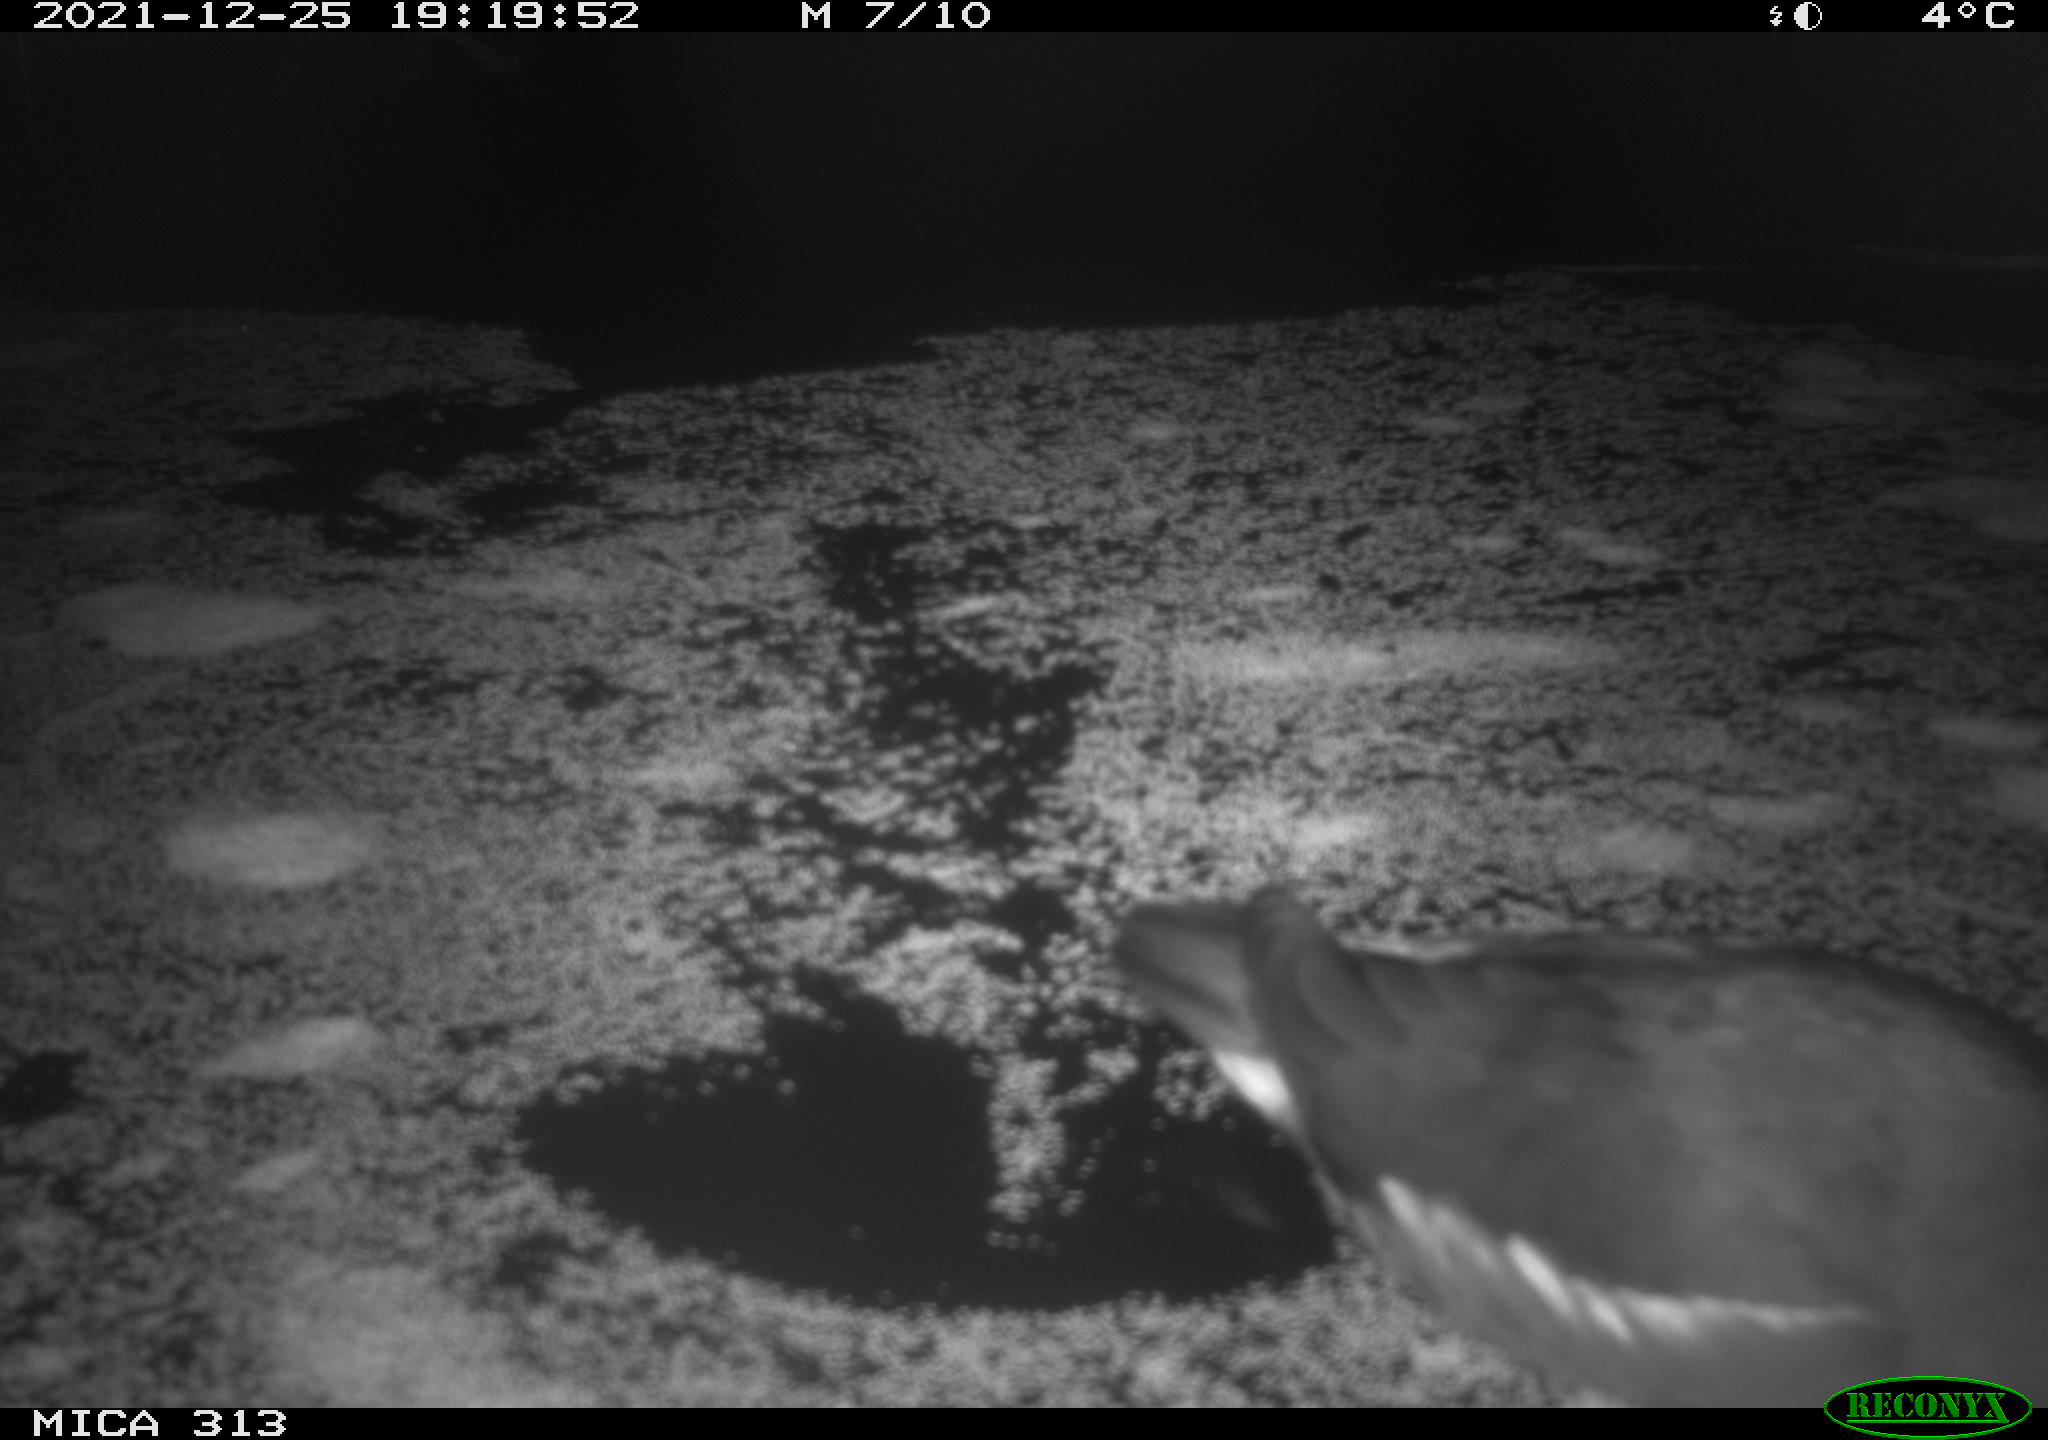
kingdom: Animalia
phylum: Chordata
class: Aves
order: Gruiformes
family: Rallidae
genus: Gallinula
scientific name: Gallinula chloropus
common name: Common moorhen
